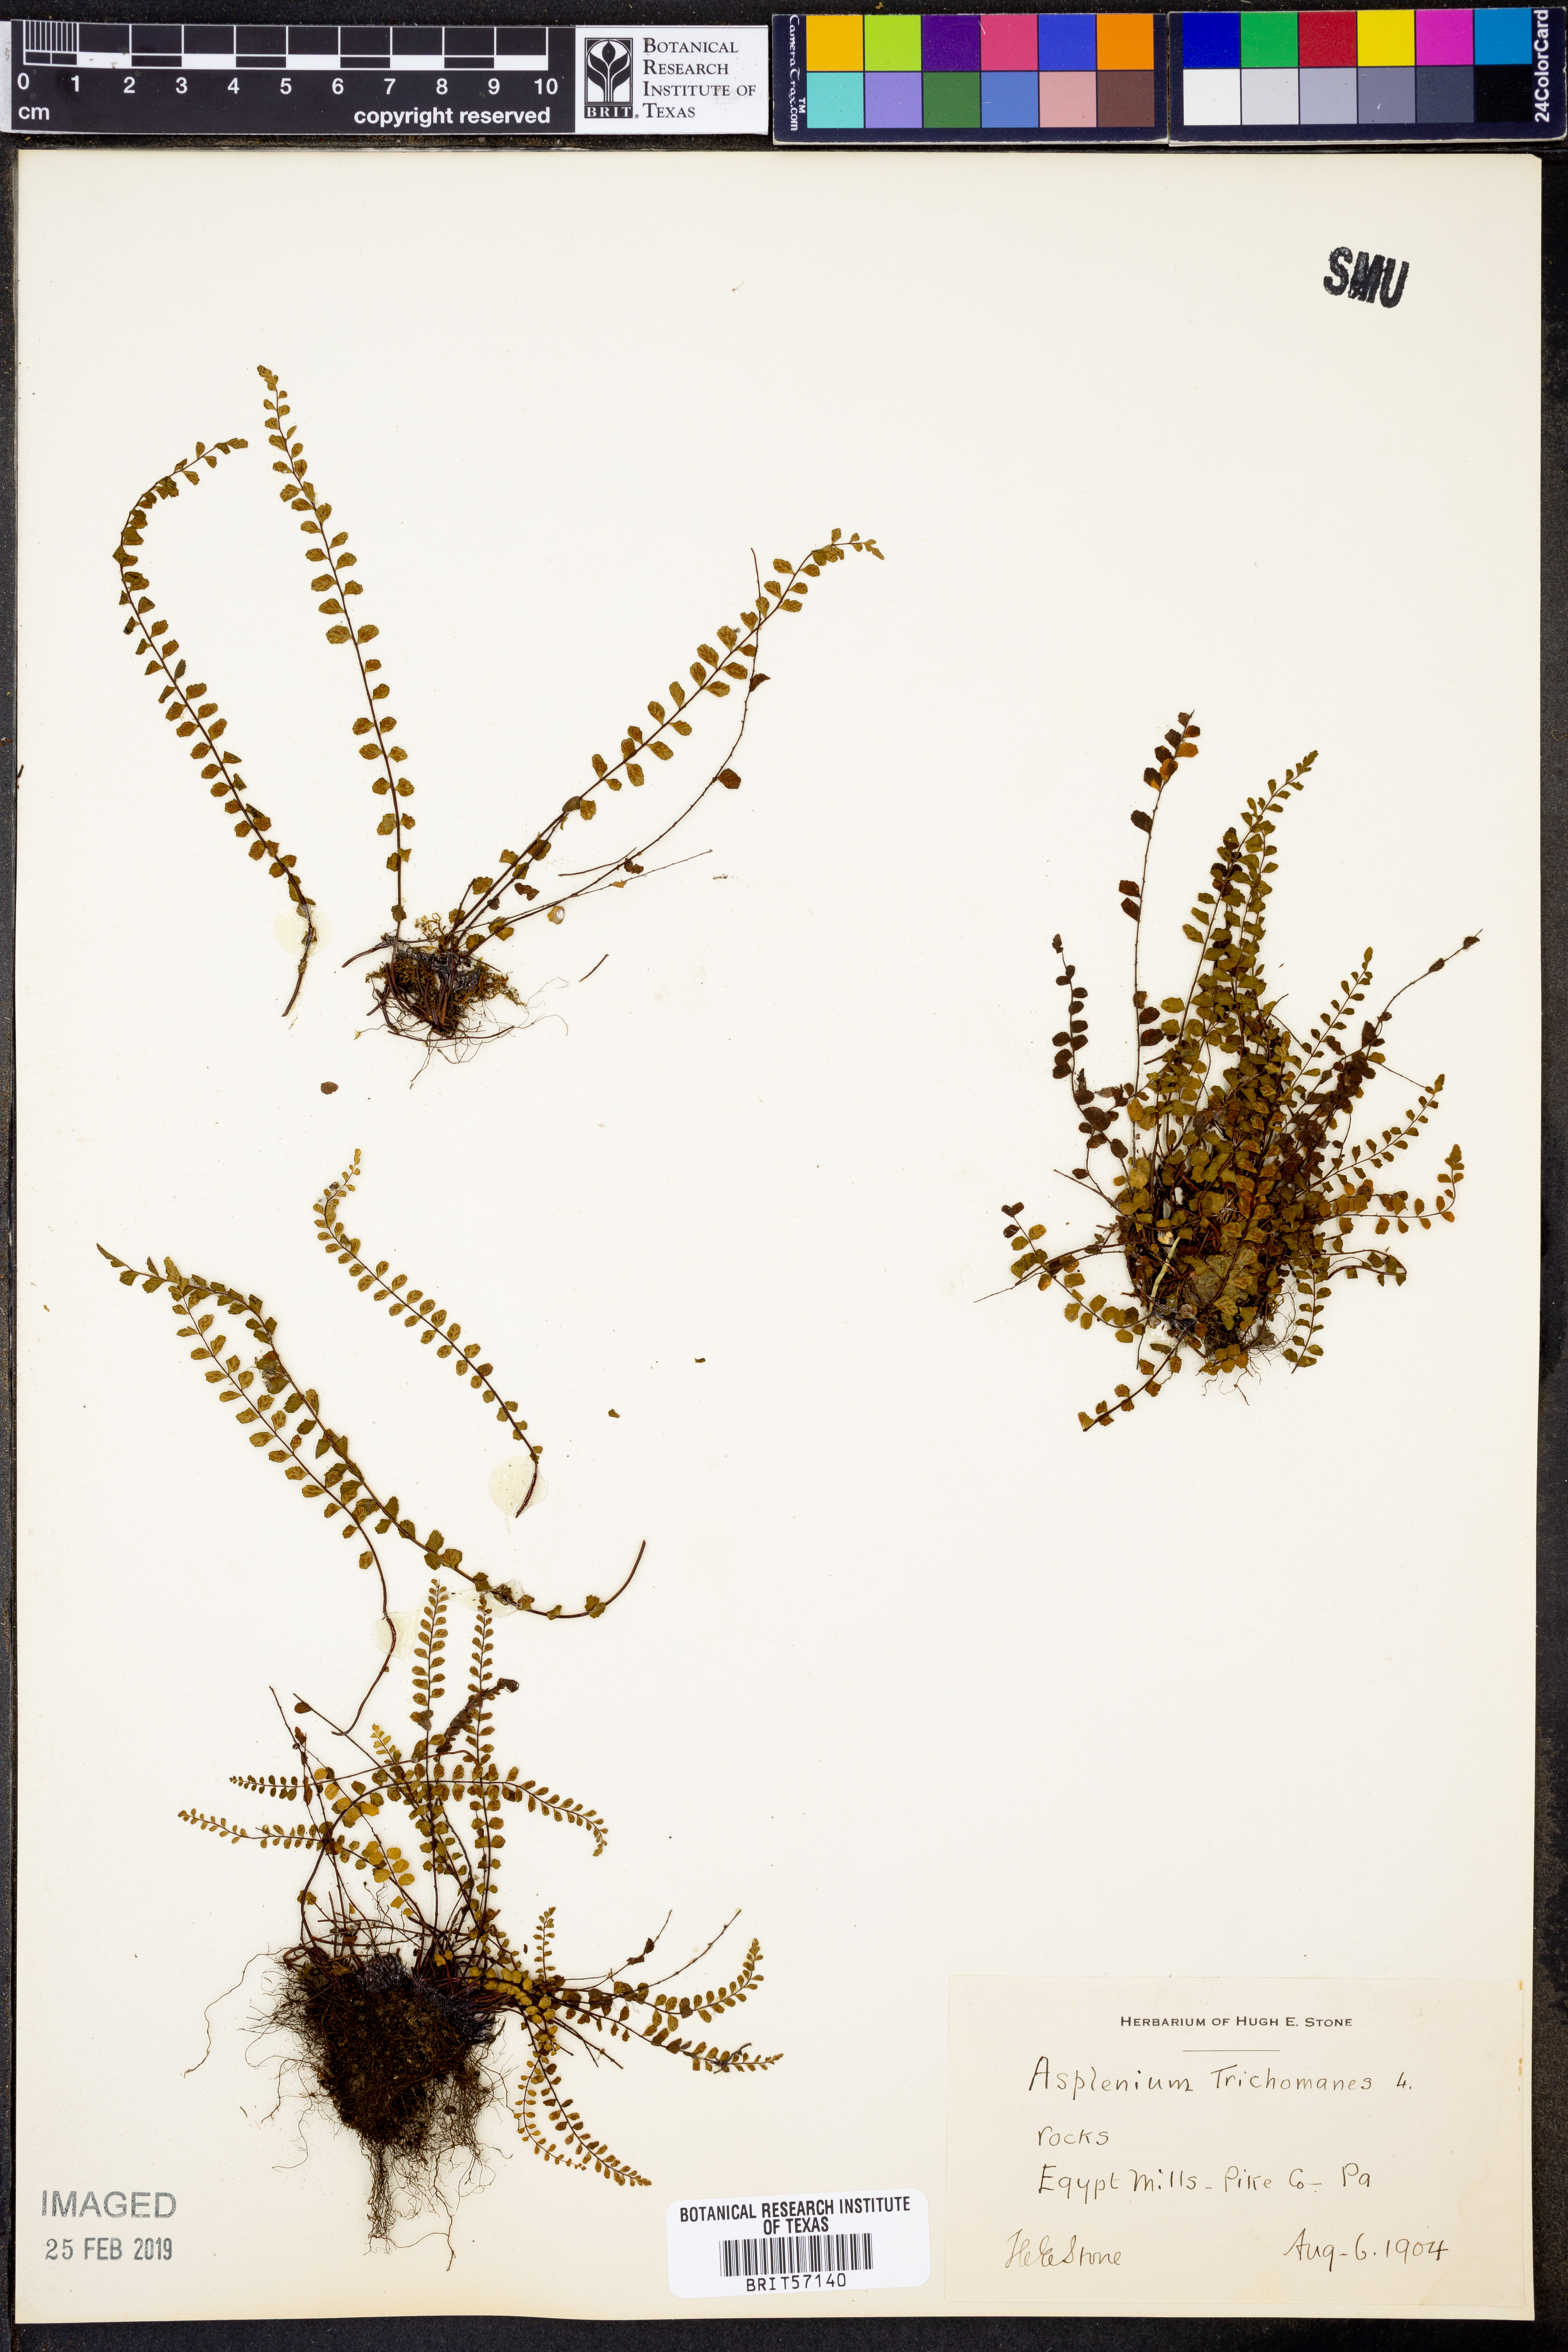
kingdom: Plantae
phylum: Tracheophyta
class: Polypodiopsida
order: Polypodiales
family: Aspleniaceae
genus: Asplenium
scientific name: Asplenium trichomanes
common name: Maidenhair spleenwort
